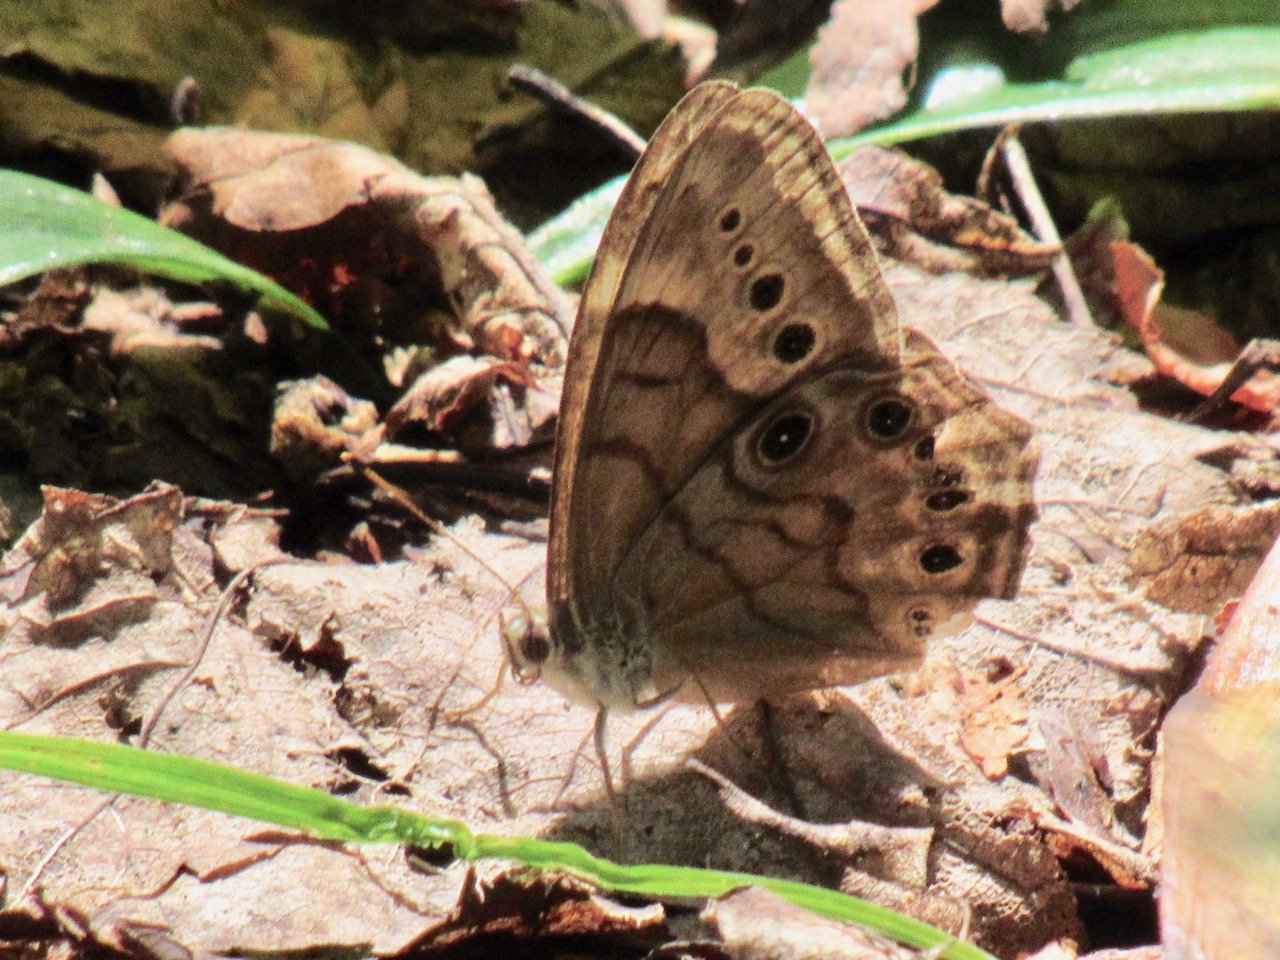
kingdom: Animalia
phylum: Arthropoda
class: Insecta
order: Lepidoptera
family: Nymphalidae
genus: Lethe
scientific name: Lethe anthedon
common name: Northern Pearly-Eye
